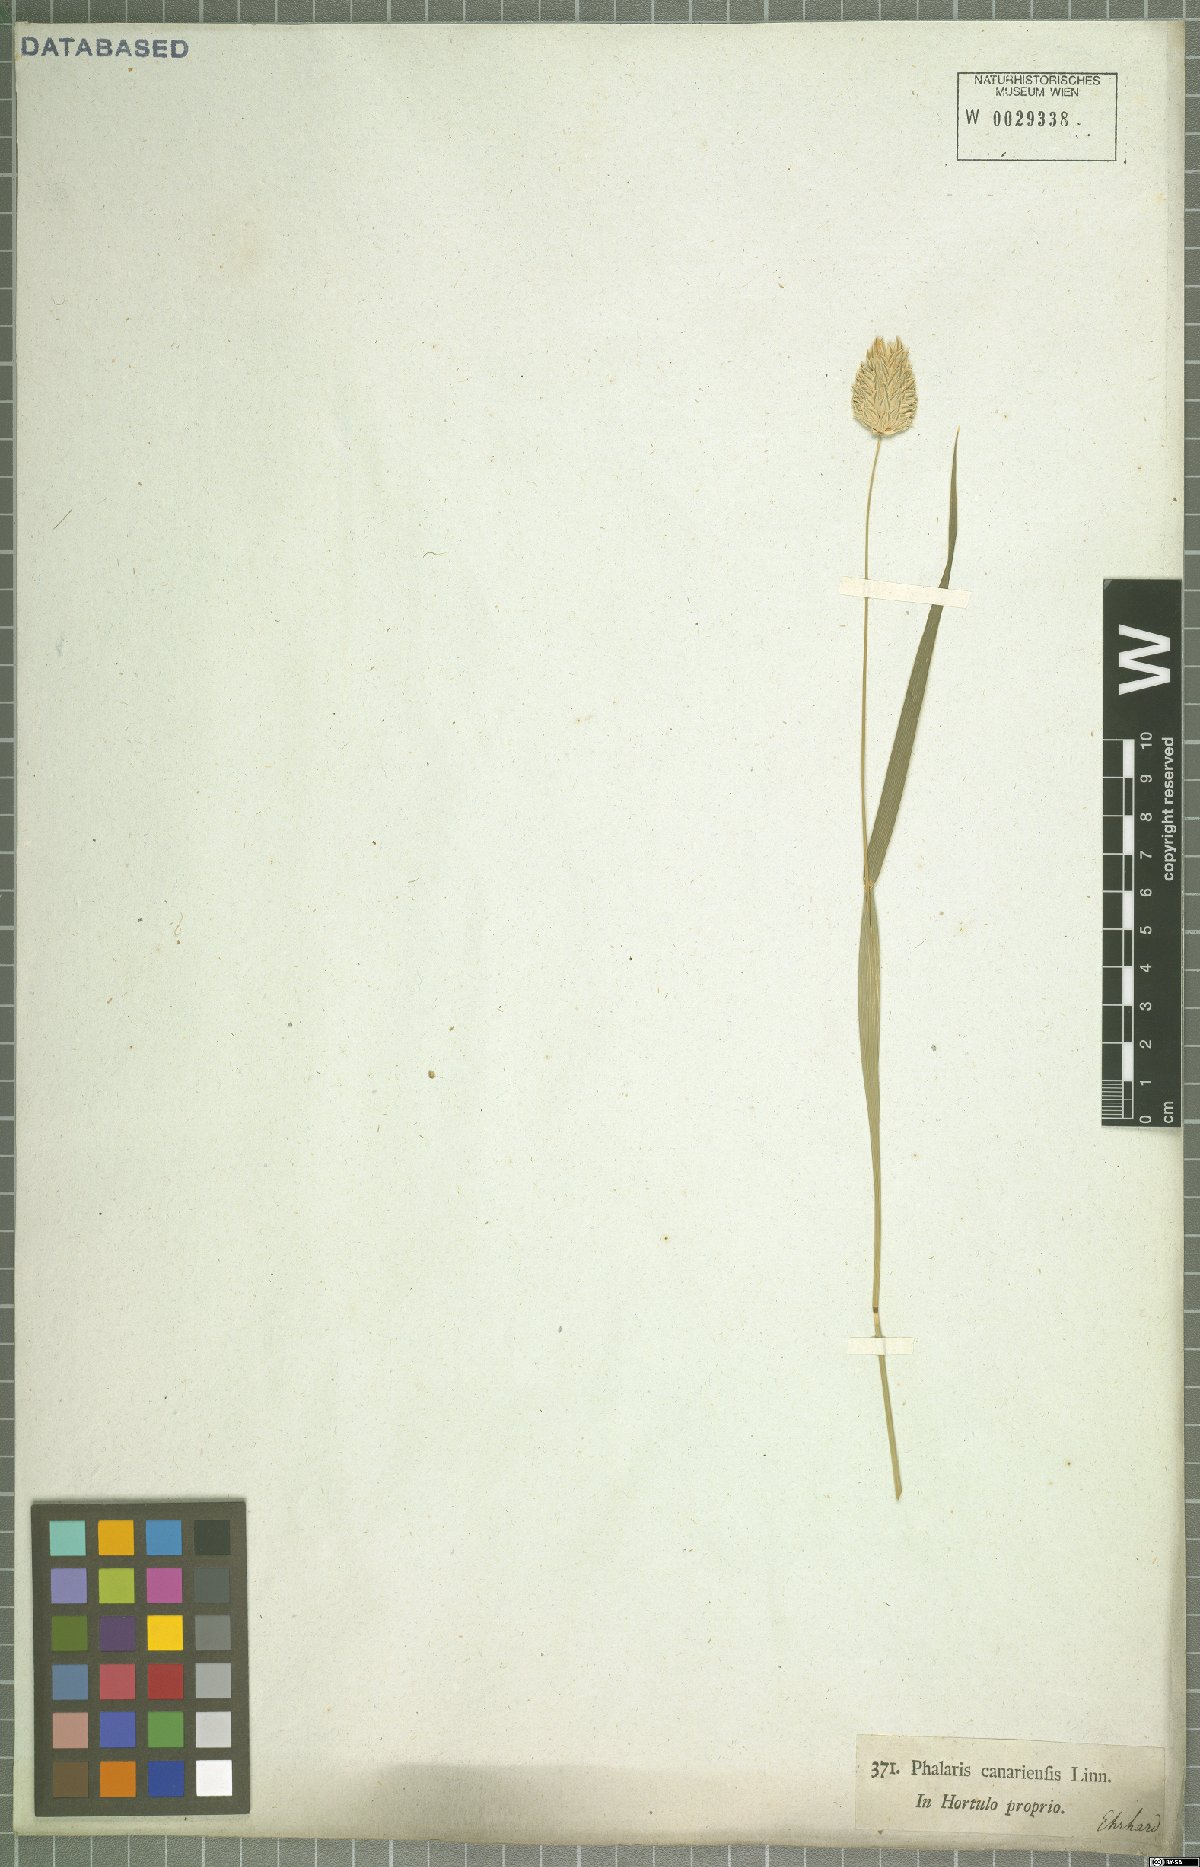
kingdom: Plantae
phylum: Tracheophyta
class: Liliopsida
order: Poales
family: Poaceae
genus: Phalaris
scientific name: Phalaris canariensis
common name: Annual canarygrass
